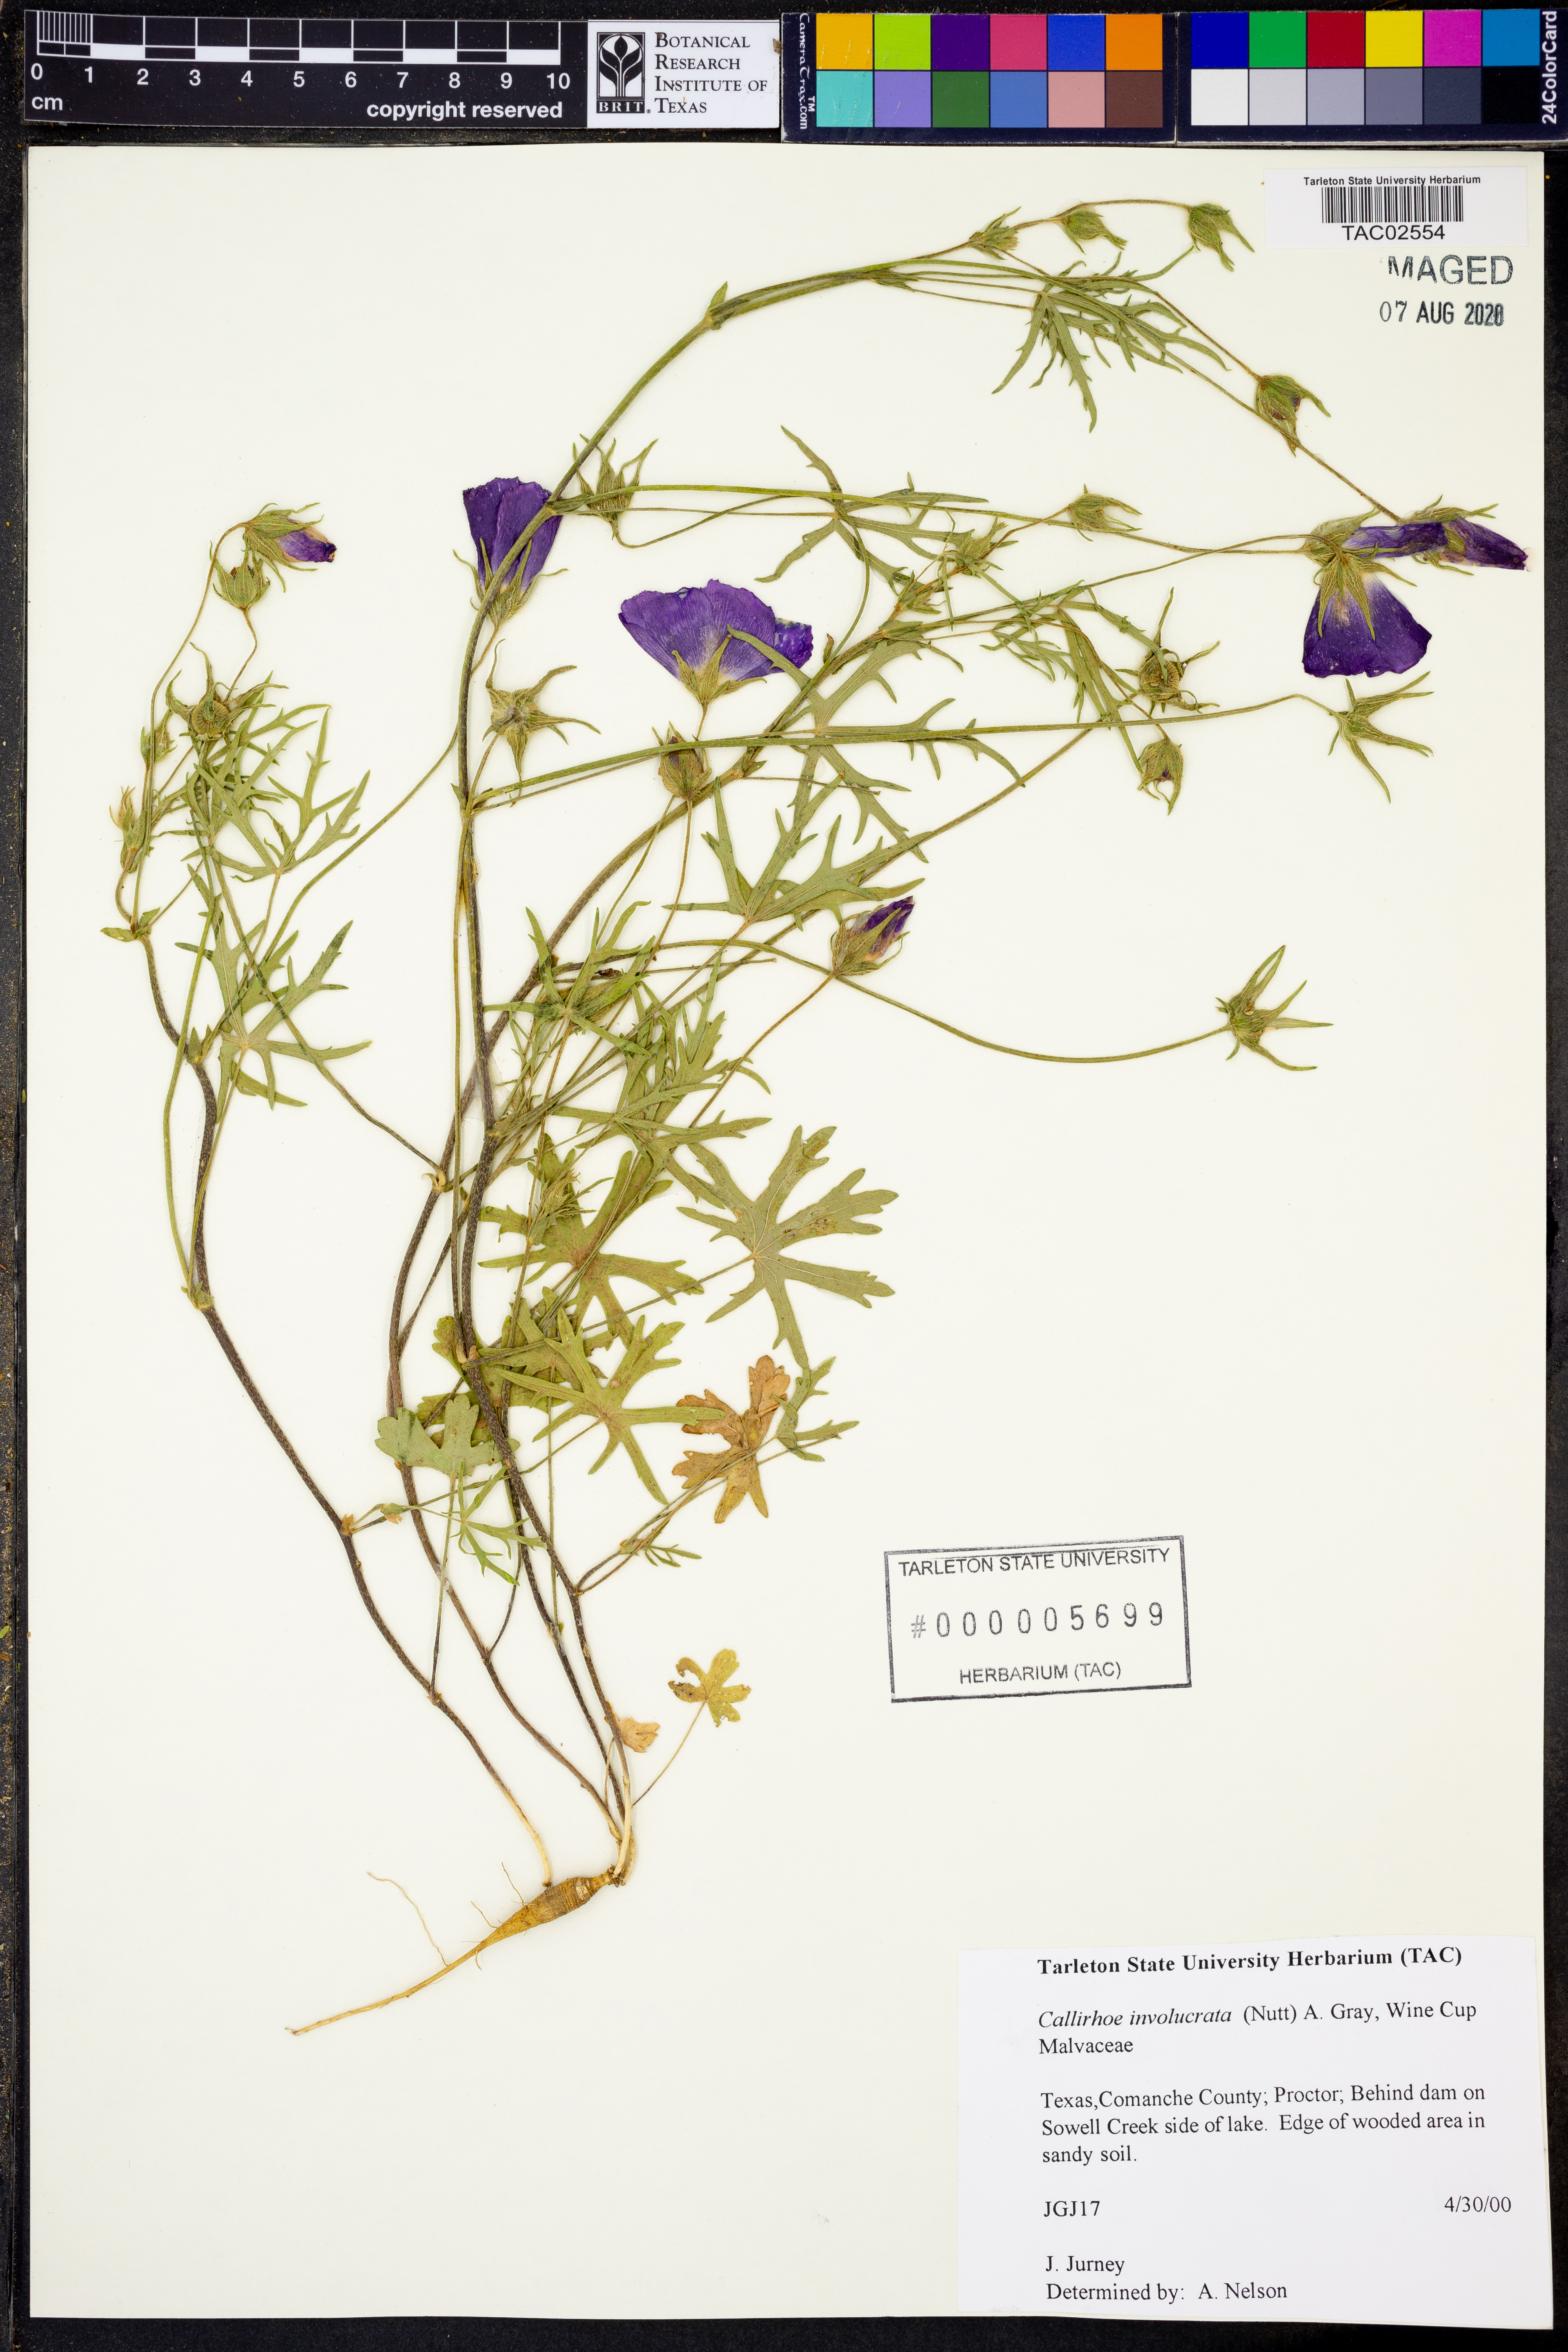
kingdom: Plantae
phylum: Tracheophyta
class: Magnoliopsida
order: Malvales
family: Malvaceae
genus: Callirhoe
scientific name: Callirhoe involucrata
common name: Purple poppy-mallow
